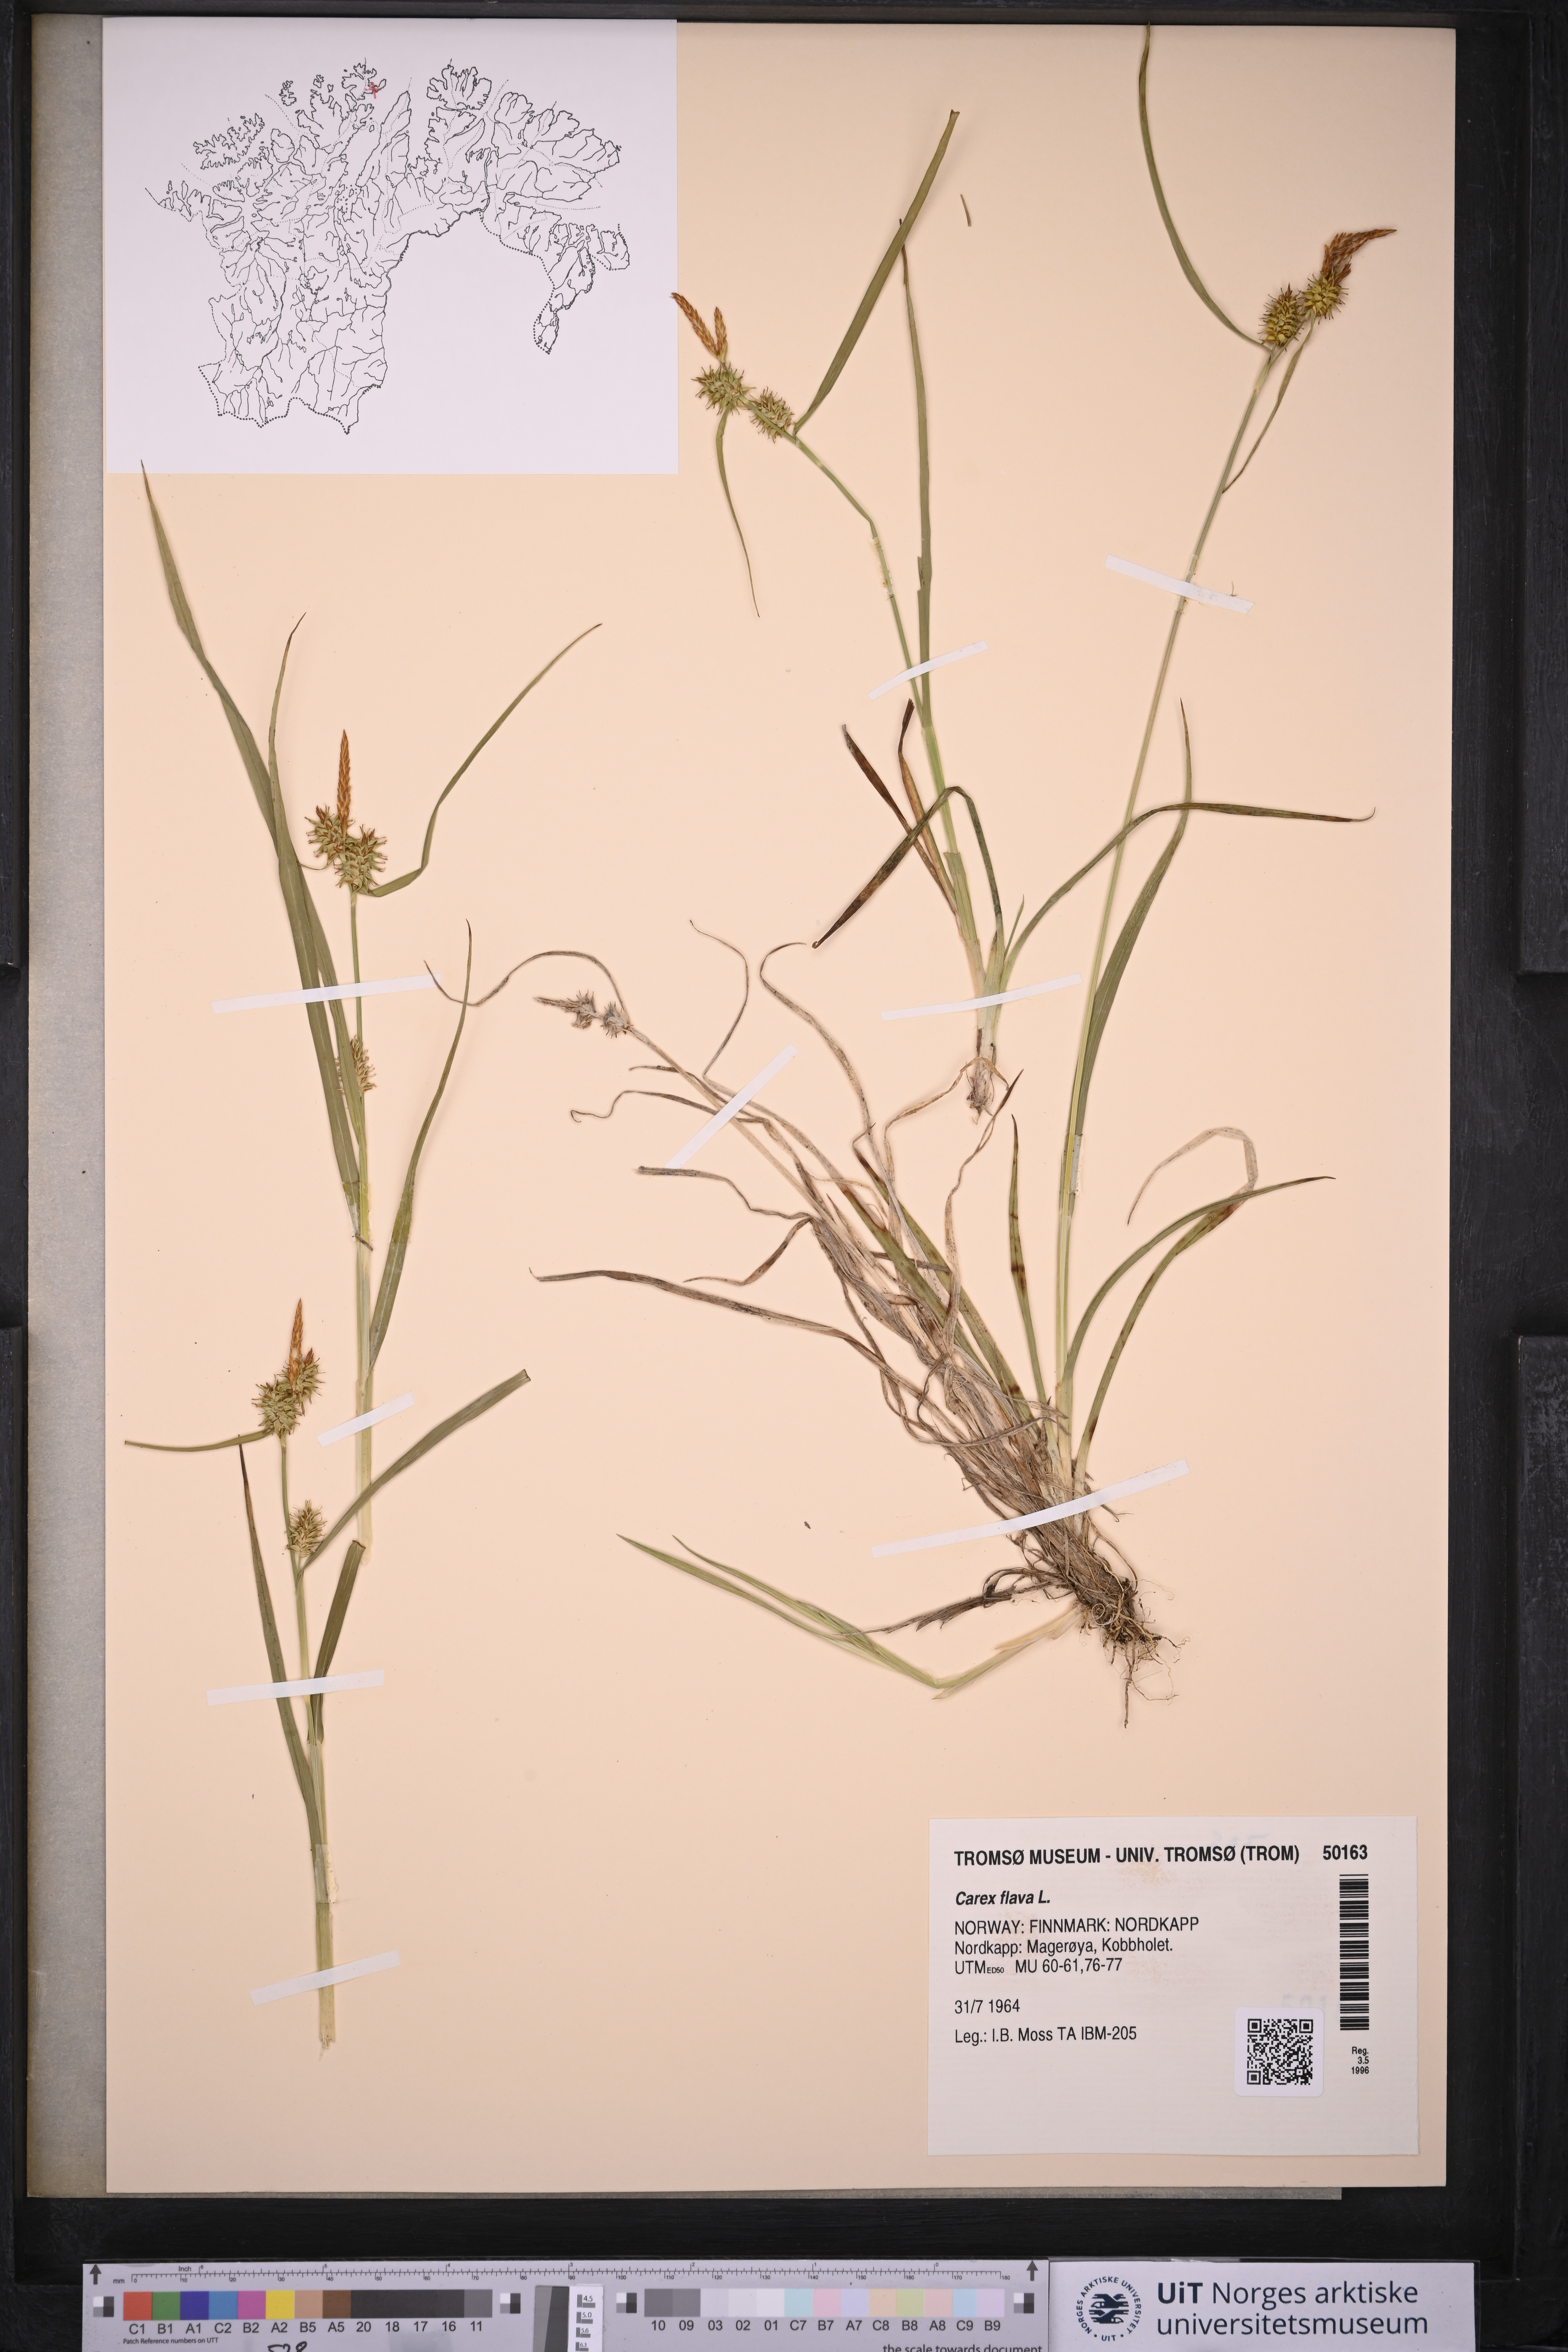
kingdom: Plantae
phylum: Tracheophyta
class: Liliopsida
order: Poales
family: Cyperaceae
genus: Carex
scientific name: Carex flava
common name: Large yellow-sedge
